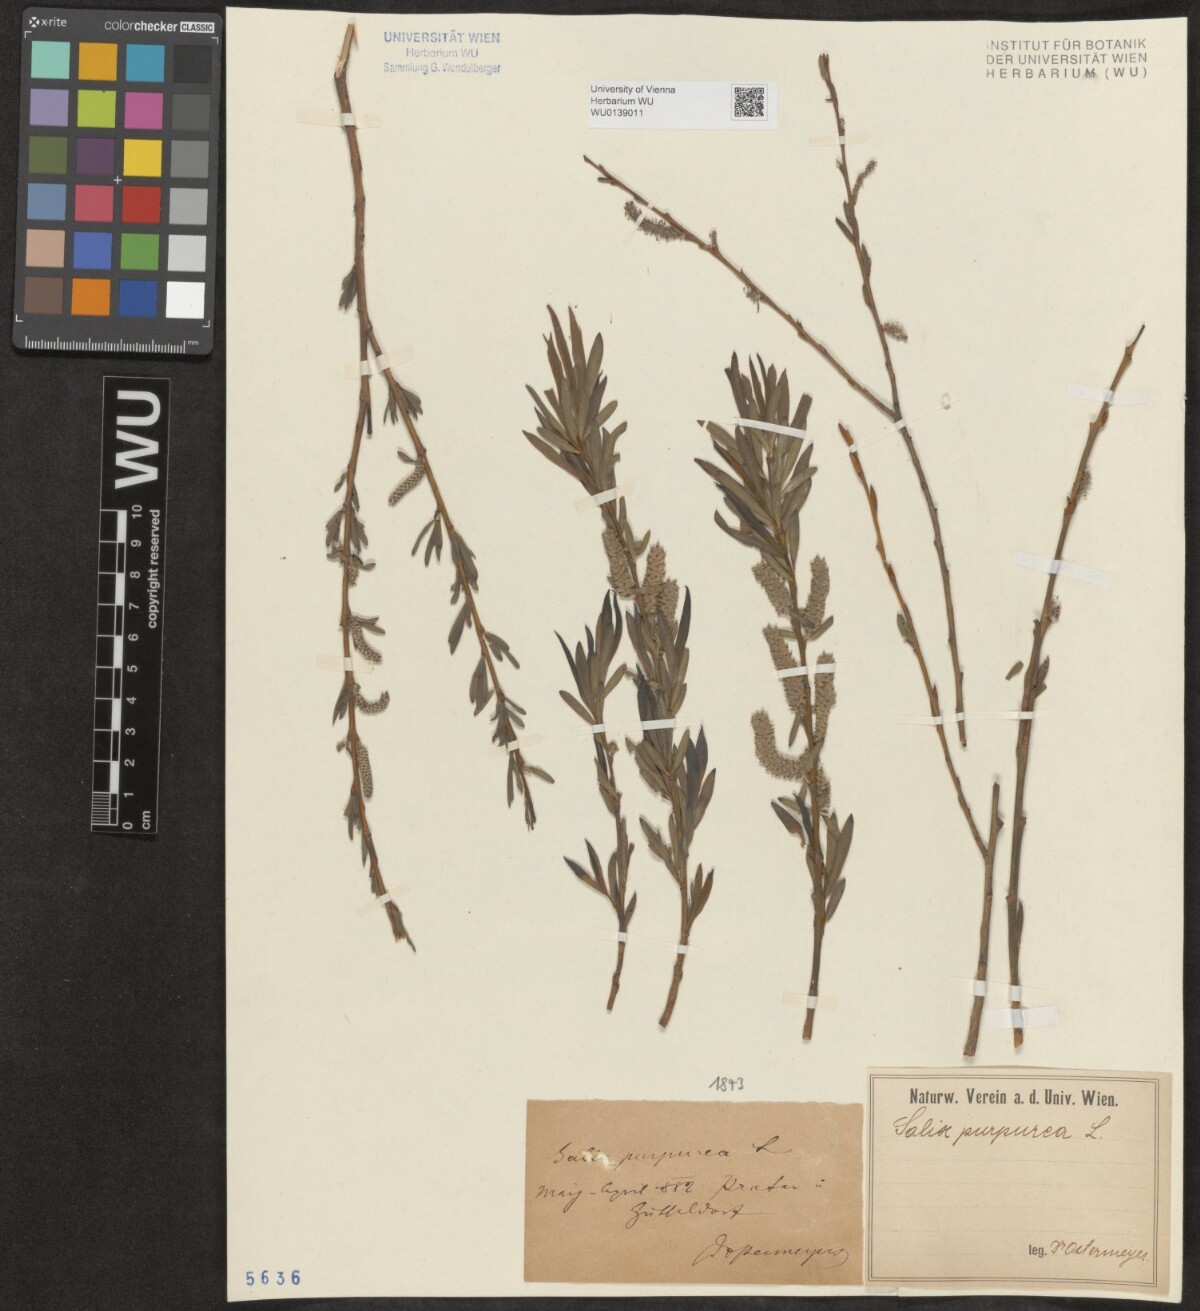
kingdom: Plantae
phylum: Tracheophyta
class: Magnoliopsida
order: Malpighiales
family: Salicaceae
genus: Salix
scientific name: Salix purpurea
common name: Purple willow
